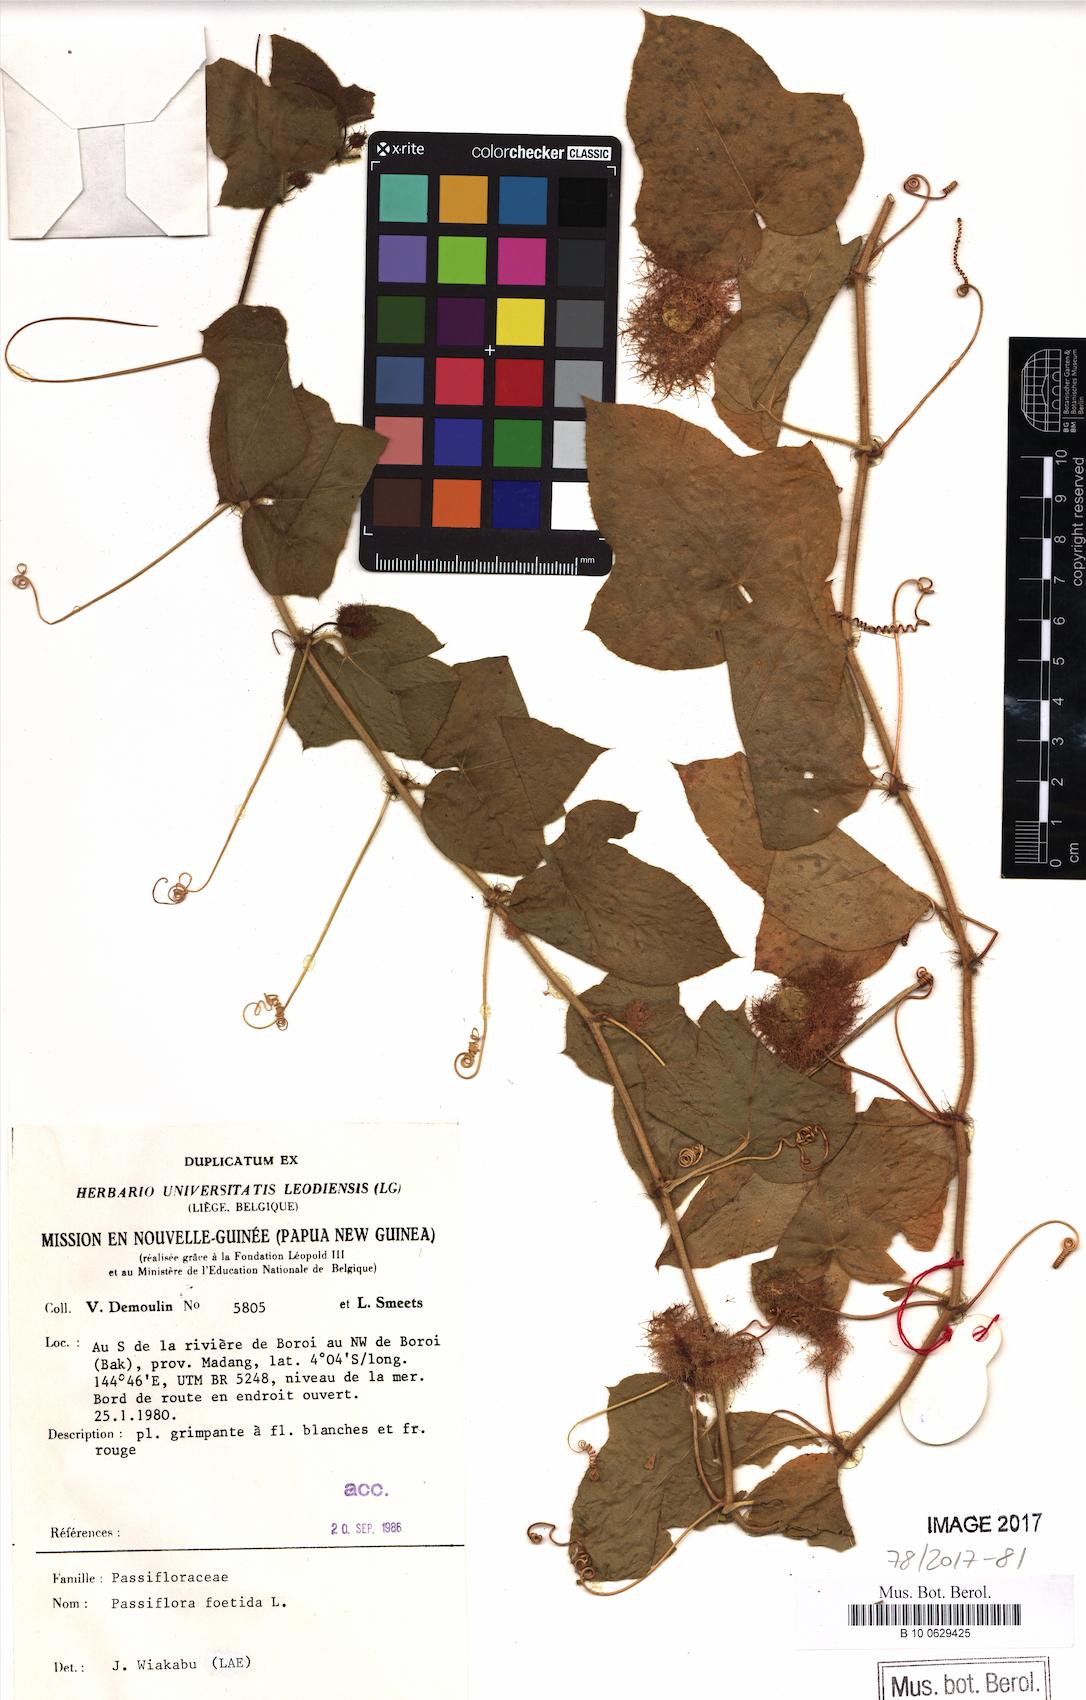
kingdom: Plantae
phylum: Tracheophyta
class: Magnoliopsida
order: Malpighiales
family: Passifloraceae
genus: Passiflora
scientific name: Passiflora foetida
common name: Fetid passionflower
